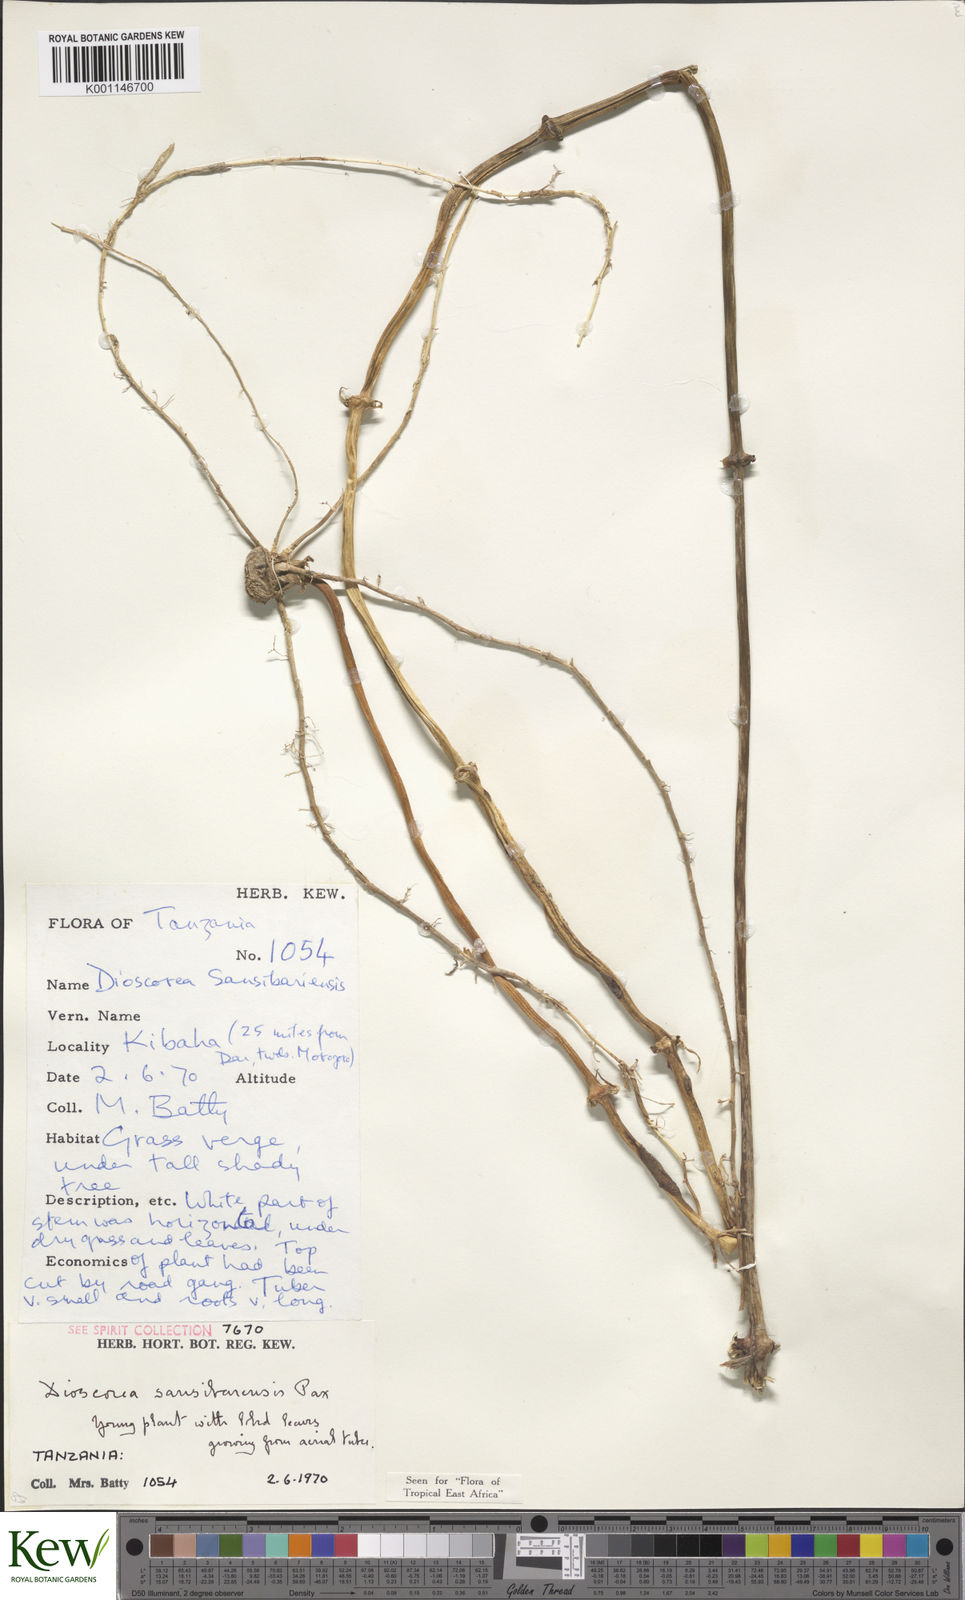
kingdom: Plantae
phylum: Tracheophyta
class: Liliopsida
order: Dioscoreales
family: Dioscoreaceae
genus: Dioscorea
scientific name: Dioscorea sansibarensis
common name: Zanzibar yam
